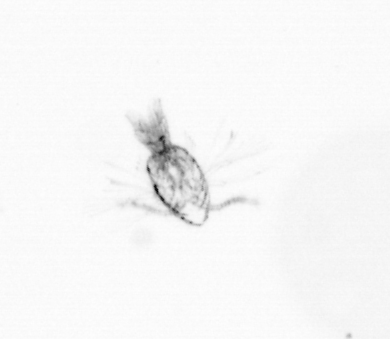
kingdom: Animalia
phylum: Arthropoda
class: Copepoda
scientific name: Copepoda
